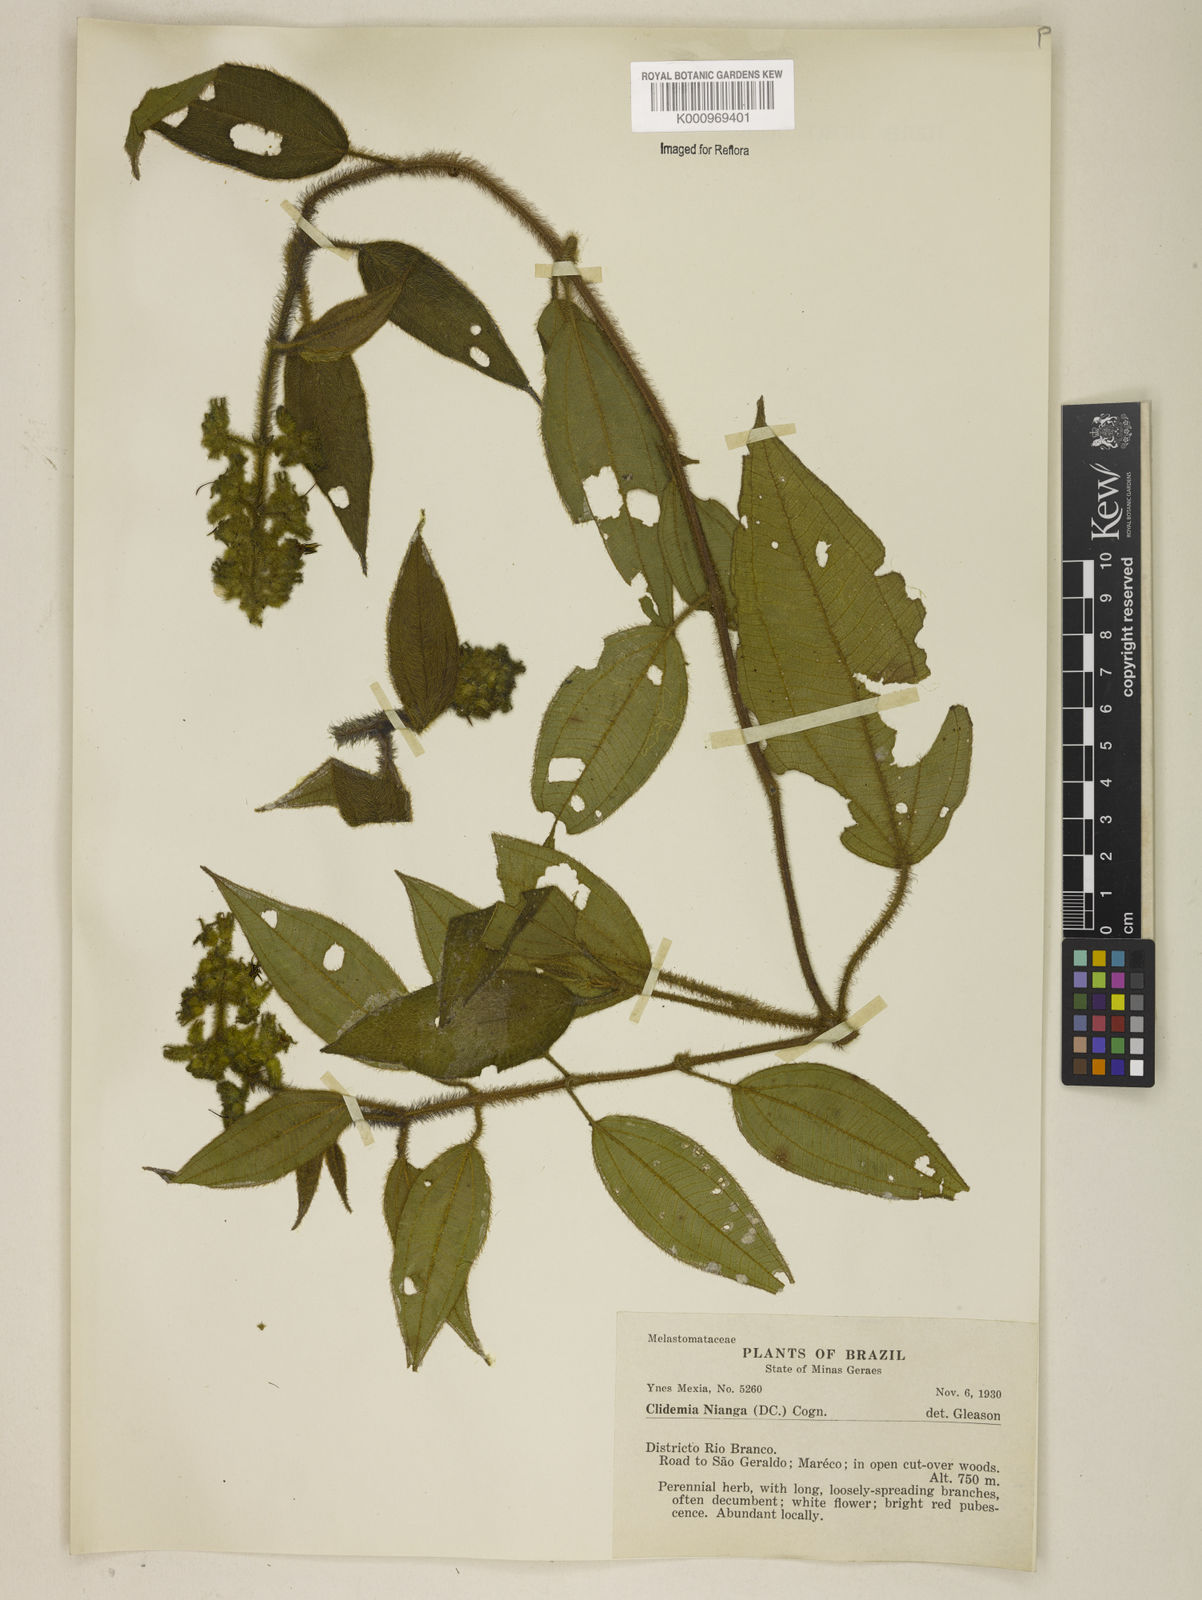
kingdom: Plantae
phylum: Tracheophyta
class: Magnoliopsida
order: Myrtales
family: Melastomataceae
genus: Miconia
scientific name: Miconia nianga
